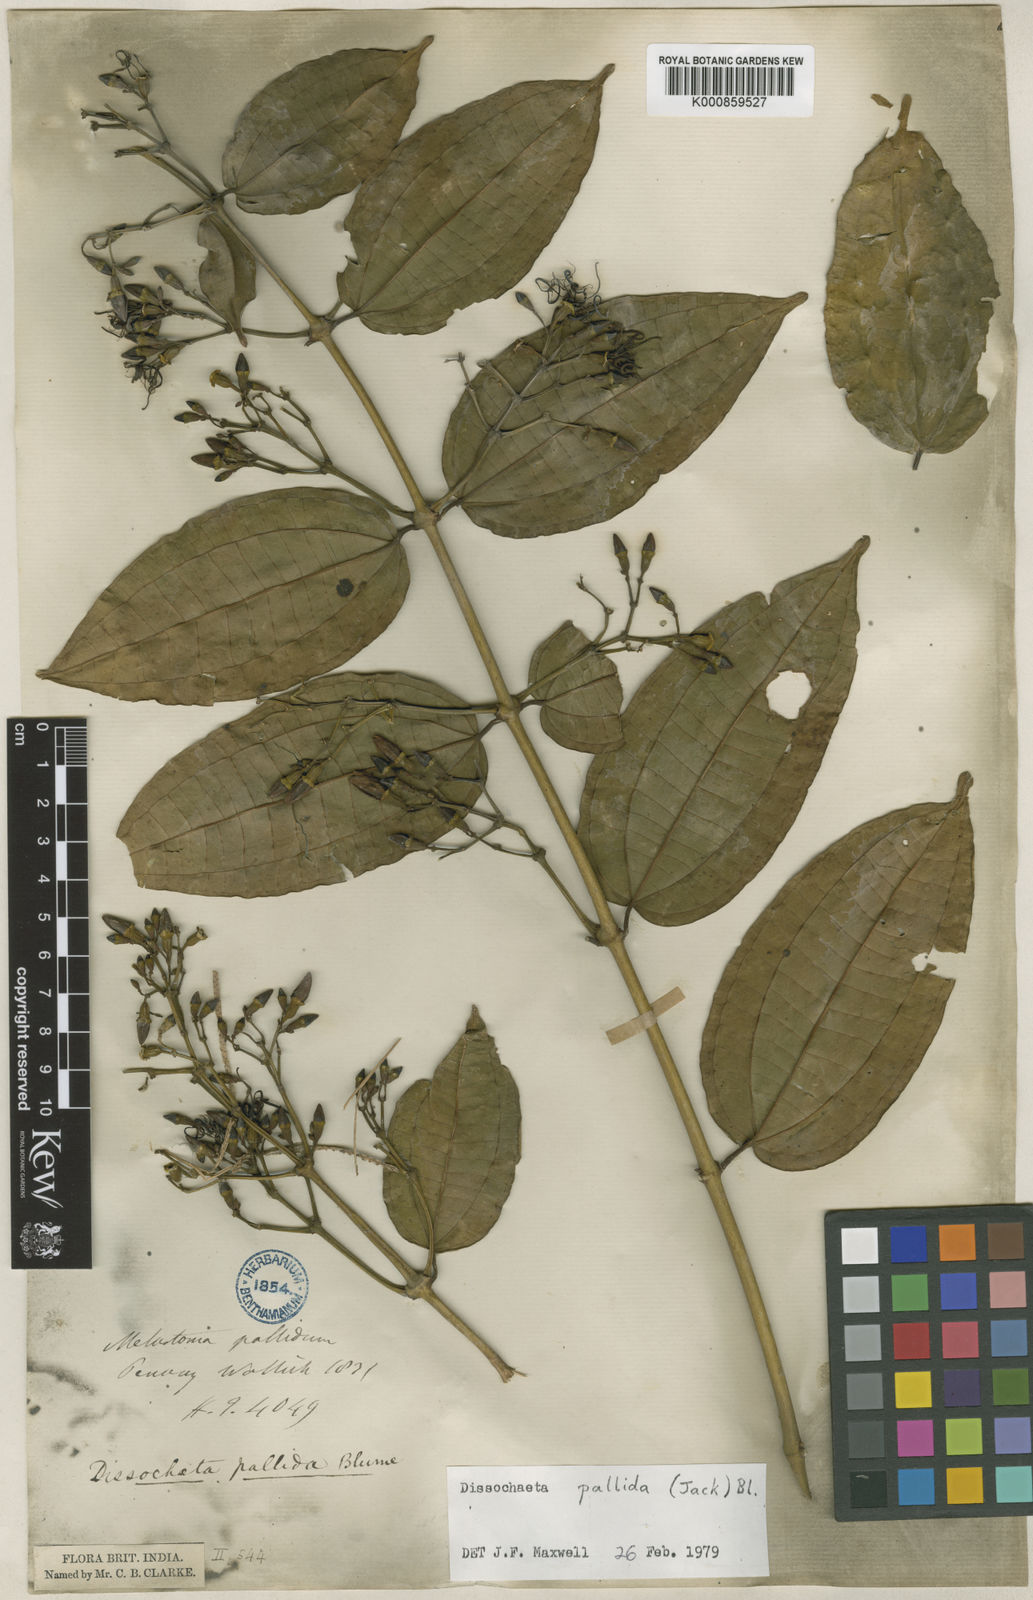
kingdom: Plantae
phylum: Tracheophyta
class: Magnoliopsida
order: Myrtales
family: Melastomataceae
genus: Dissochaeta
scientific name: Dissochaeta pallida
